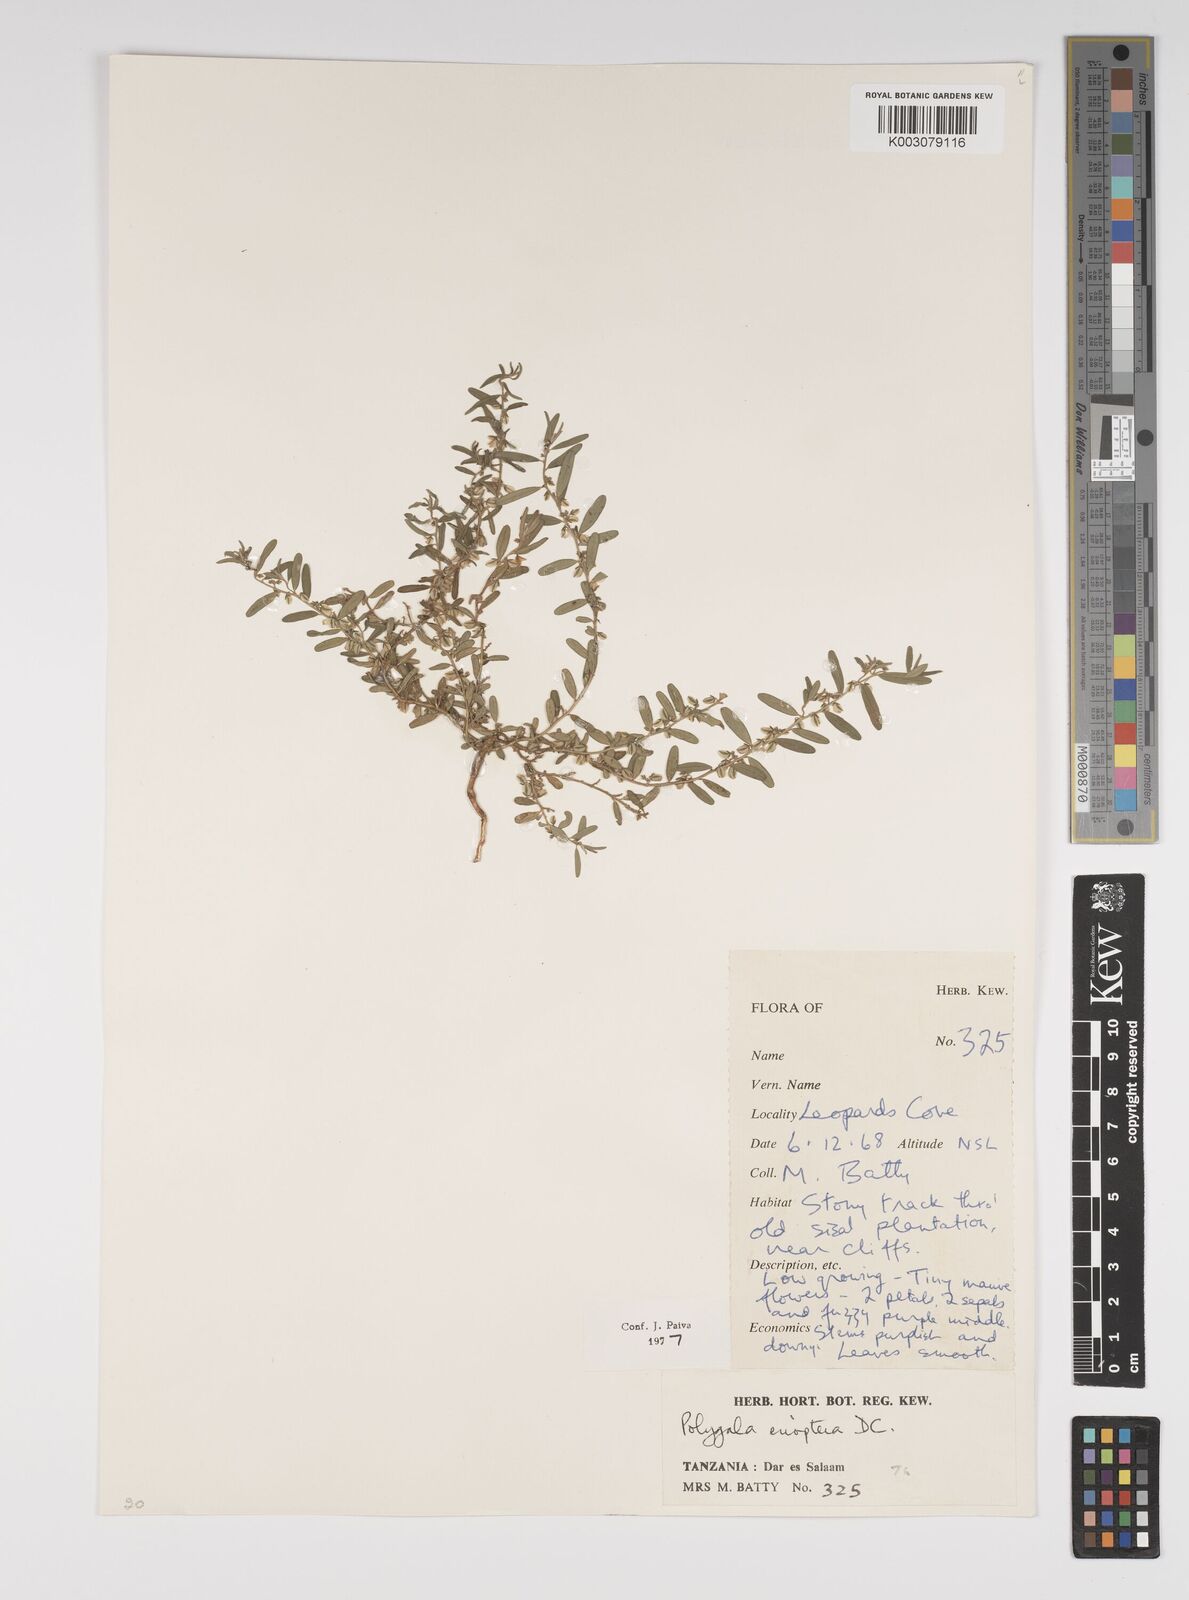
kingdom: Plantae
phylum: Tracheophyta
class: Magnoliopsida
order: Fabales
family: Polygalaceae
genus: Polygala
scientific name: Polygala erioptera
